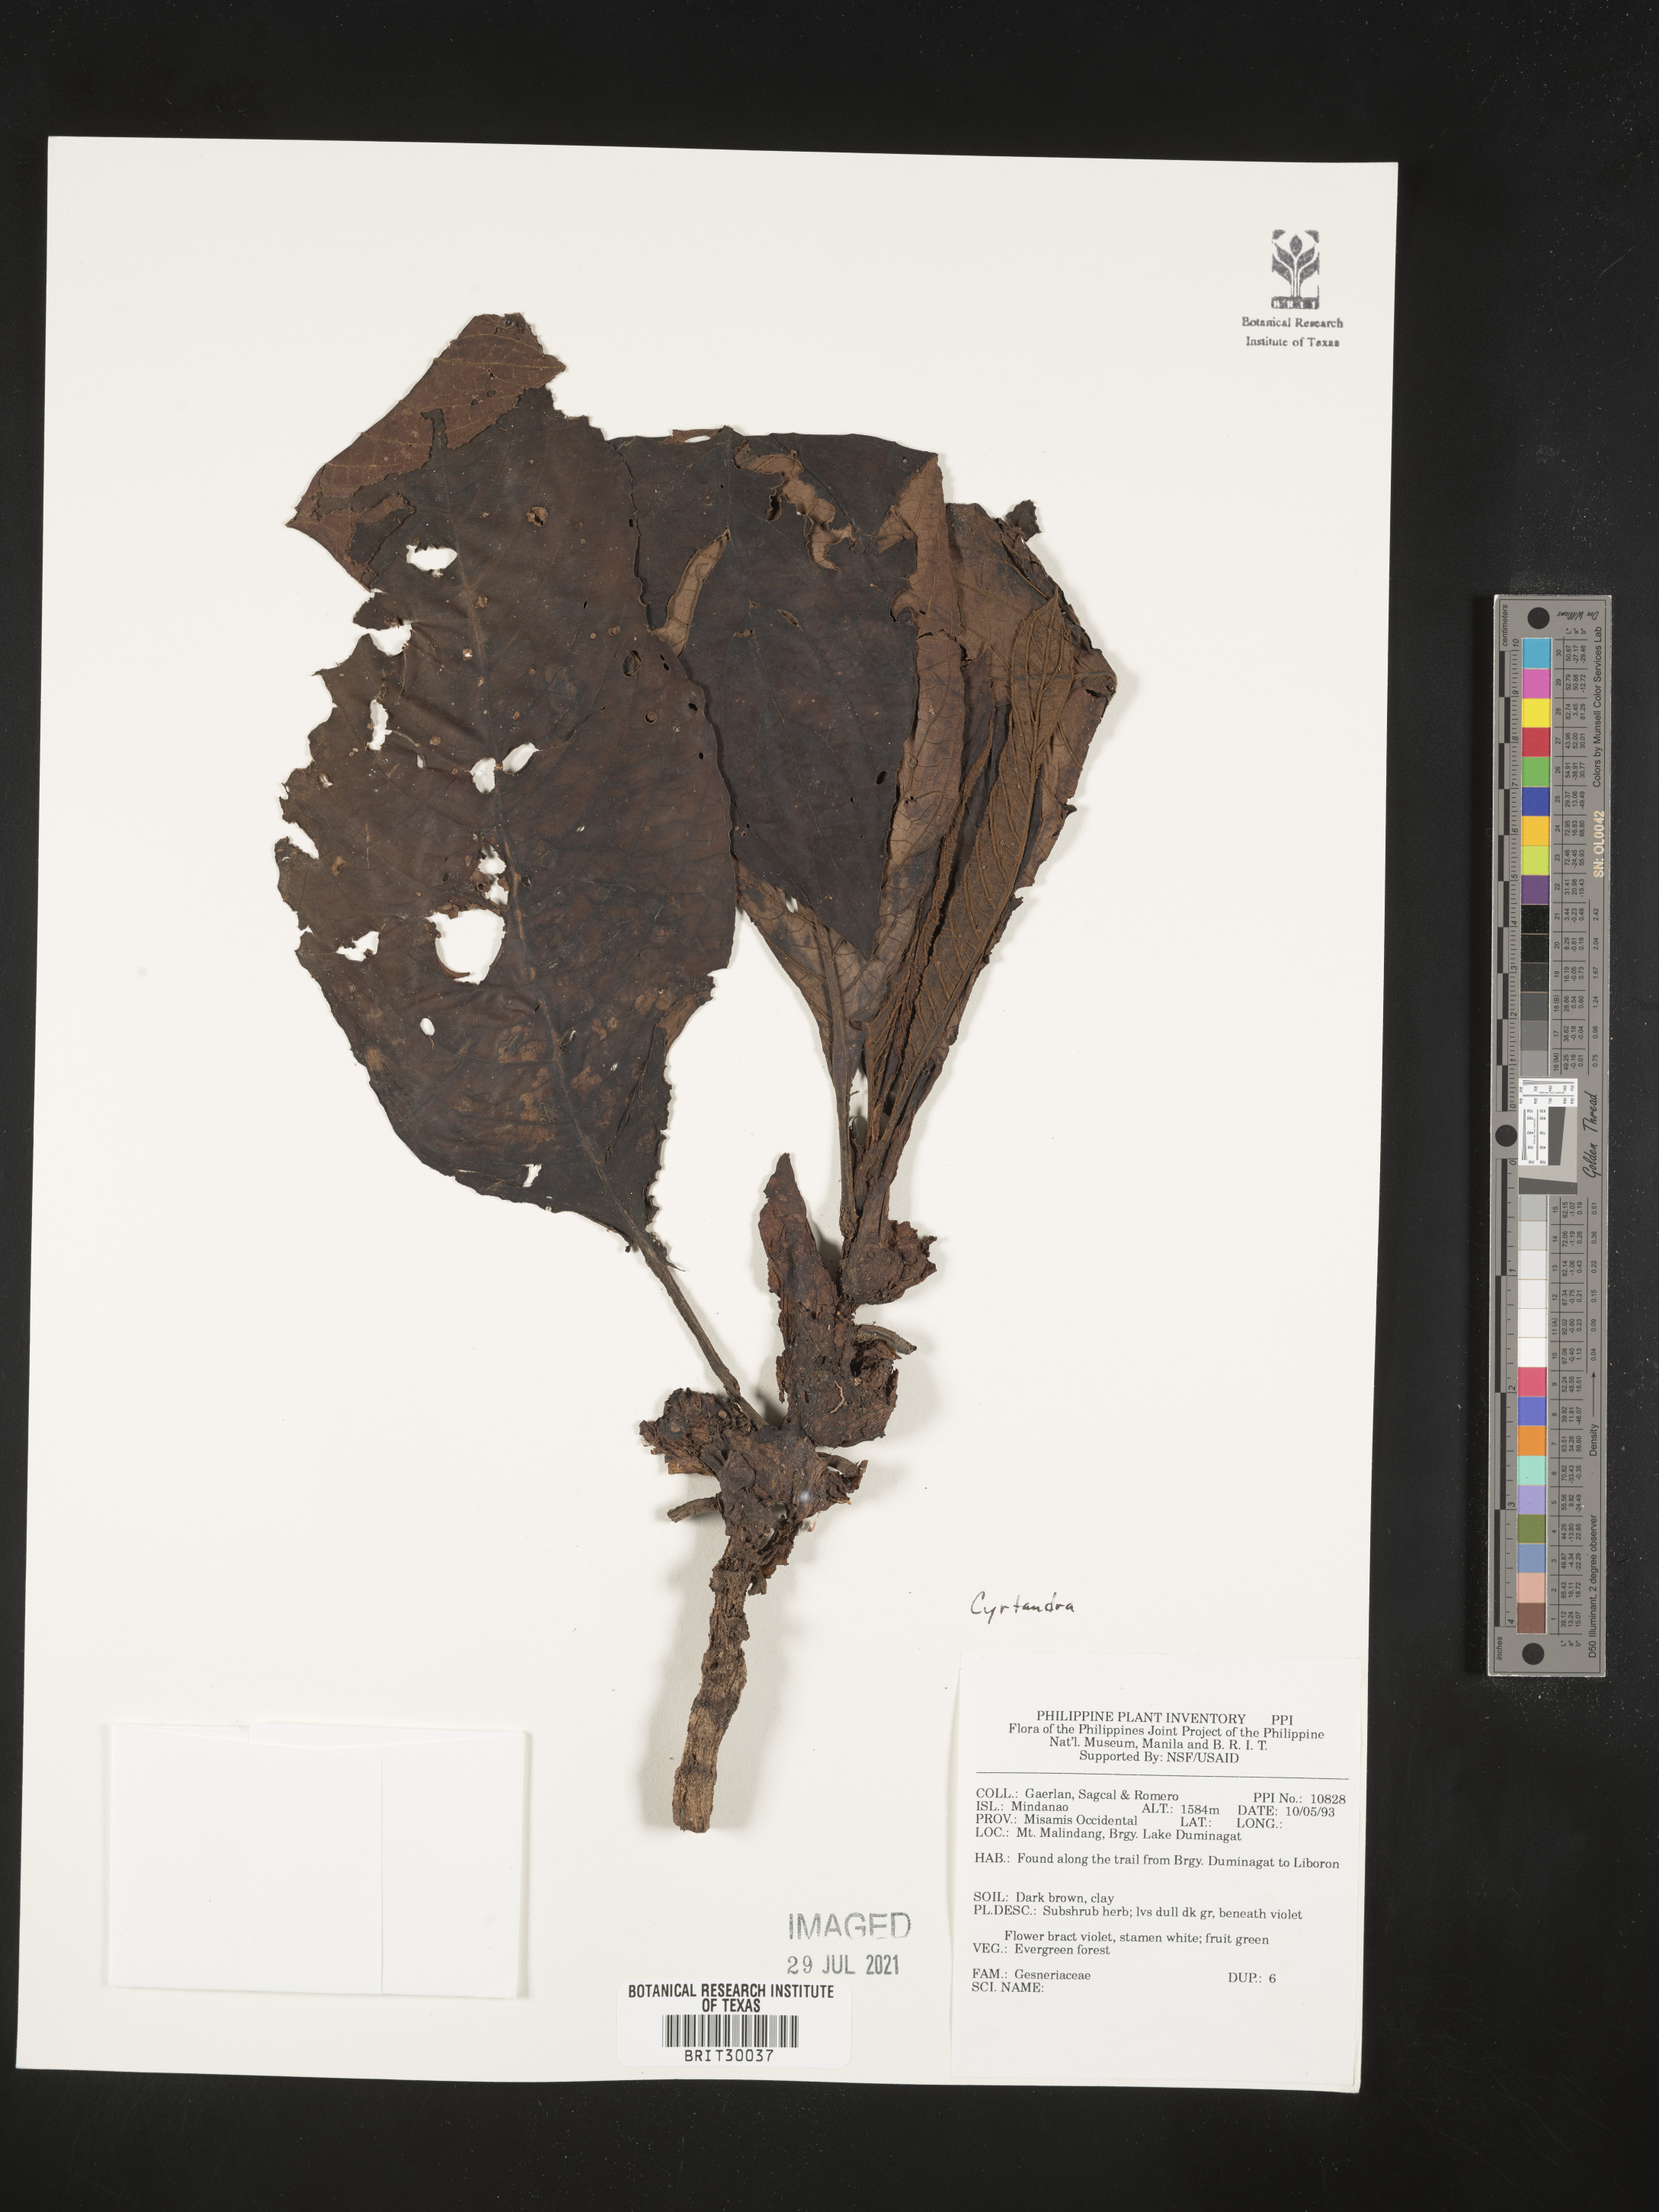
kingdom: Plantae
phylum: Tracheophyta
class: Magnoliopsida
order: Lamiales
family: Gesneriaceae
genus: Cyrtandra
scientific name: Cyrtandra
